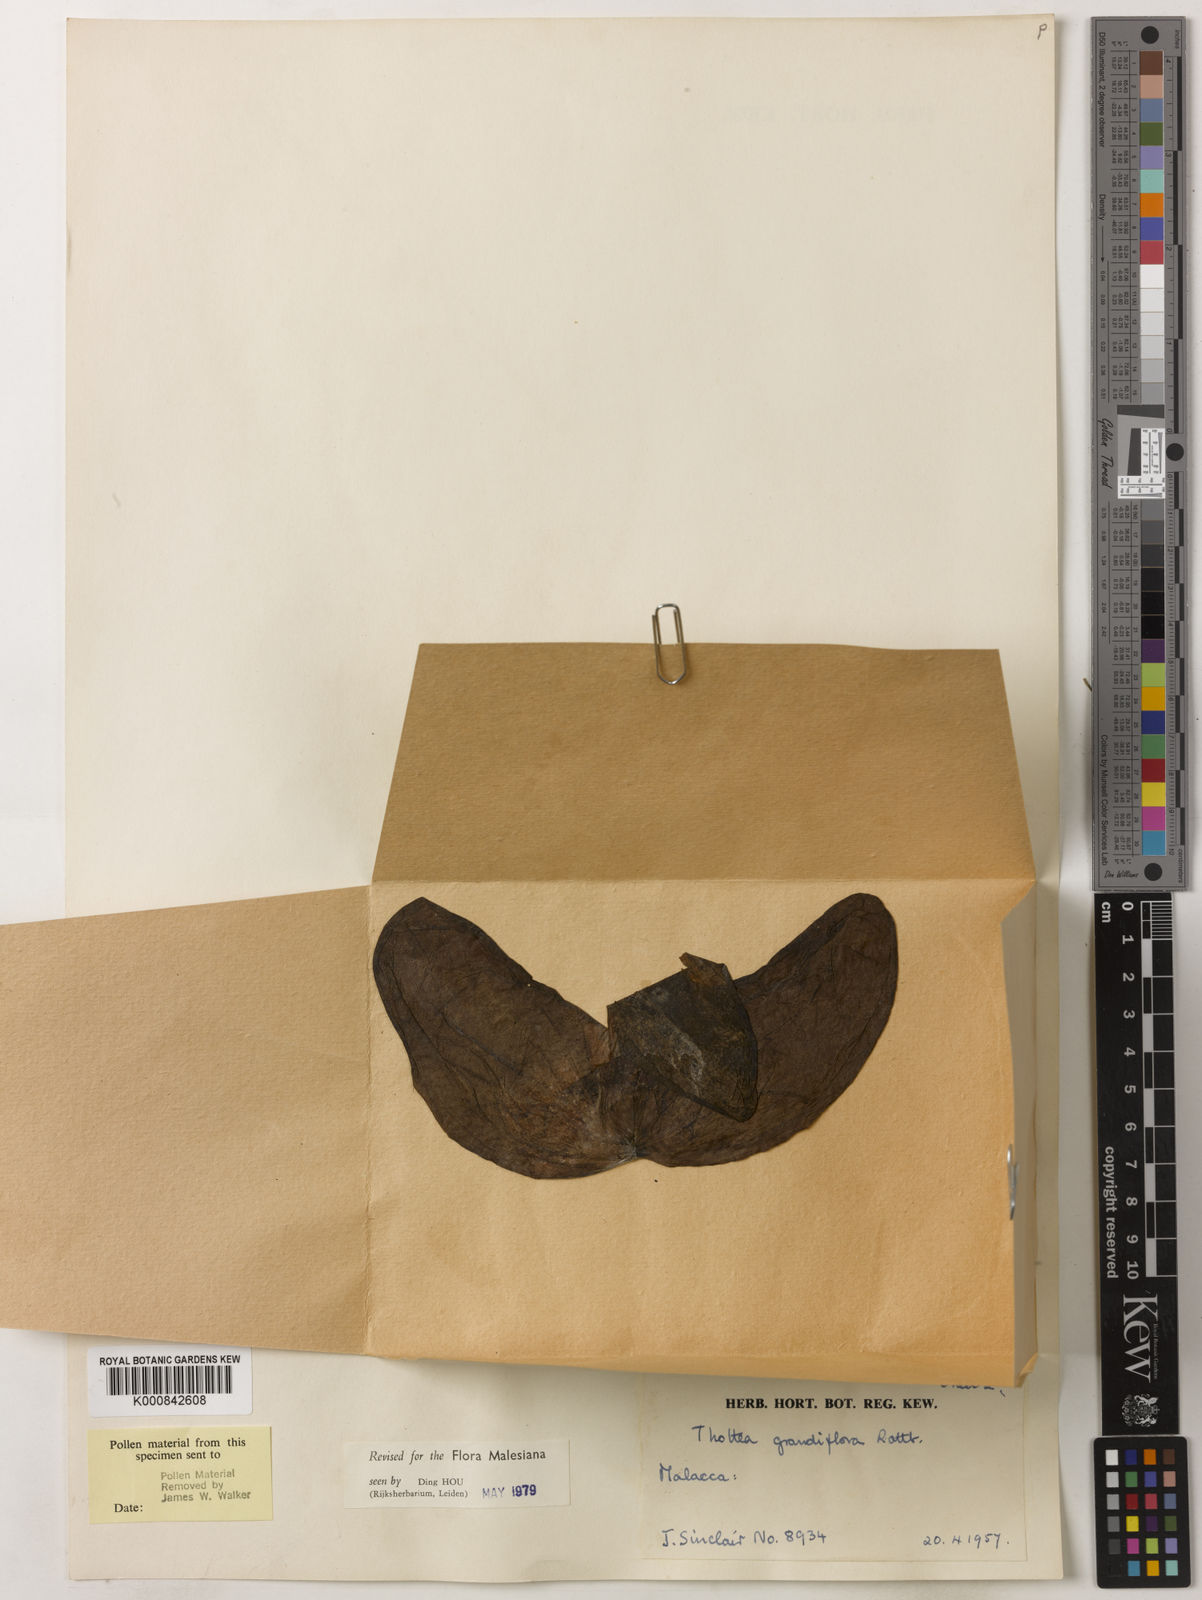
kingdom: Plantae
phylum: Tracheophyta
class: Magnoliopsida
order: Piperales
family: Aristolochiaceae
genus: Thottea
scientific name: Thottea grandiflora
